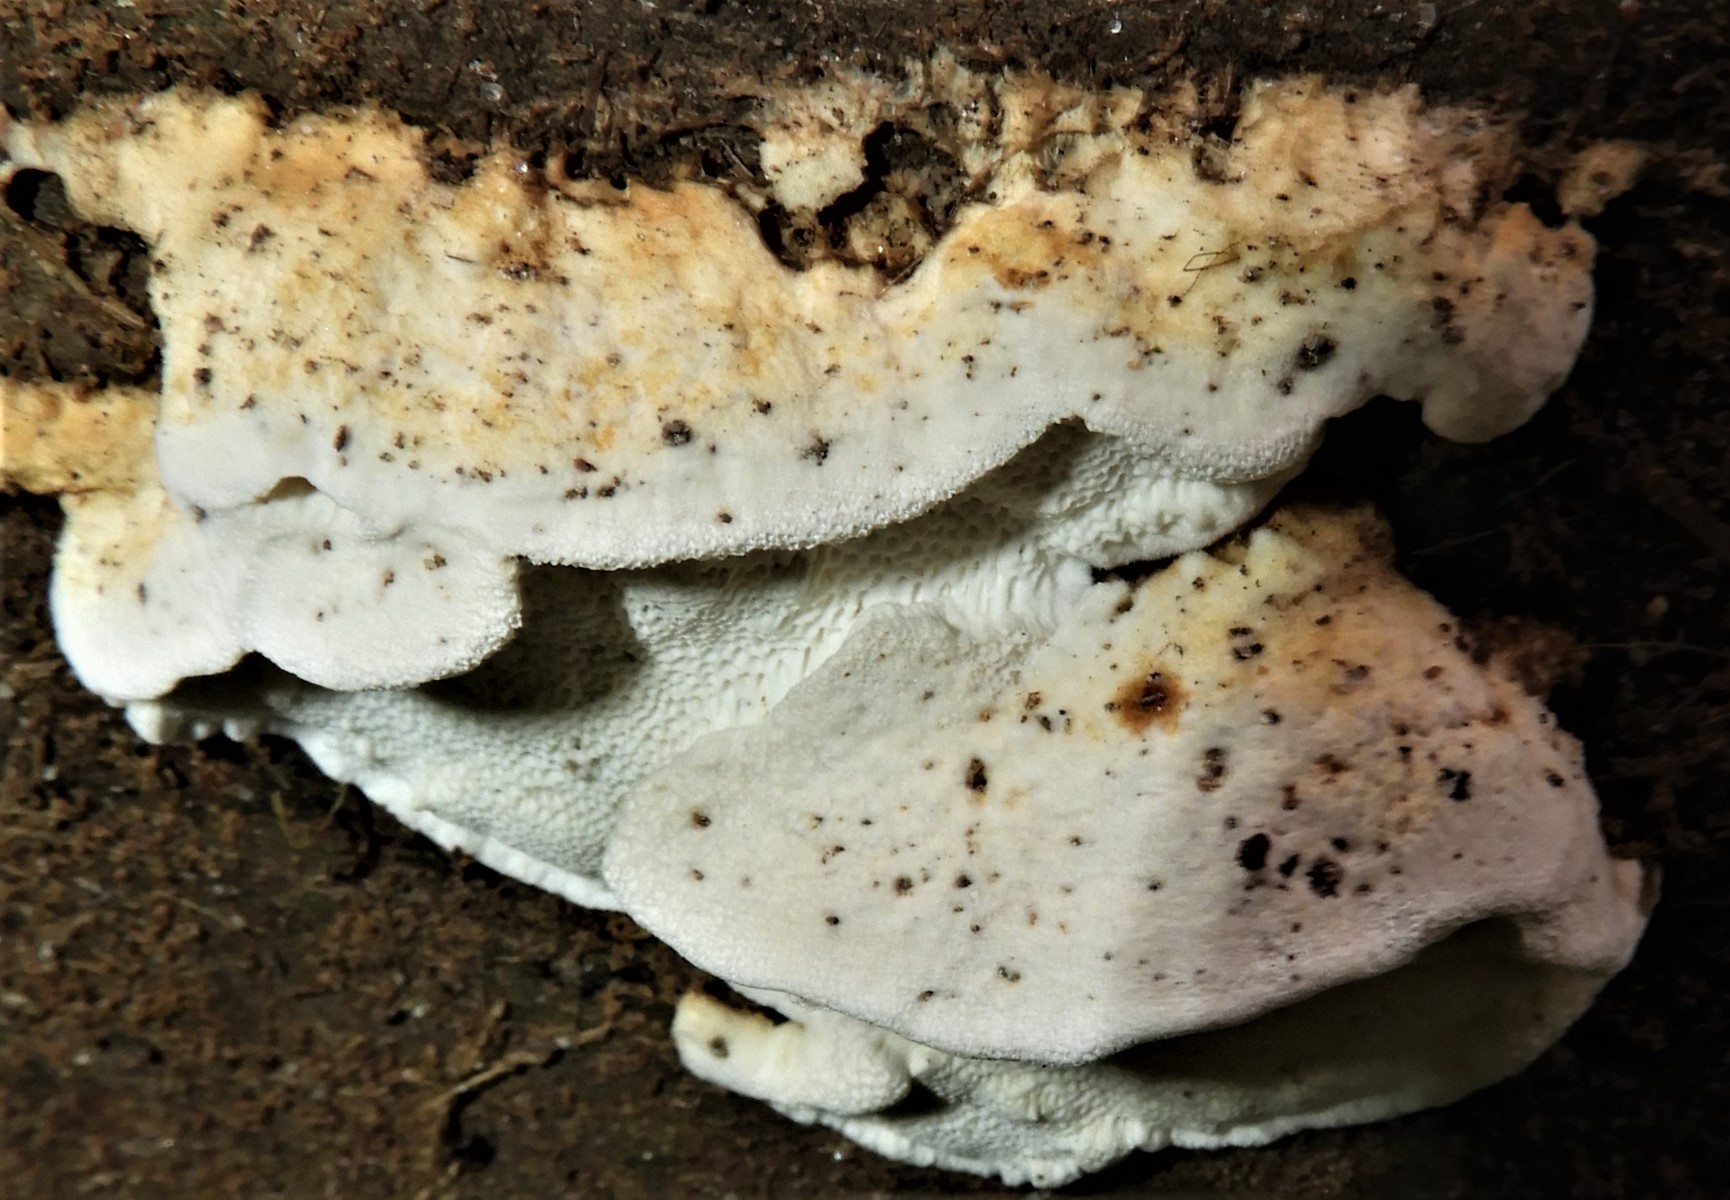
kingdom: Fungi
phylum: Basidiomycota
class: Agaricomycetes
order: Russulales
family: Bondarzewiaceae
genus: Heterobasidion
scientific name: Heterobasidion annosum
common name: almindelig rodfordærver
